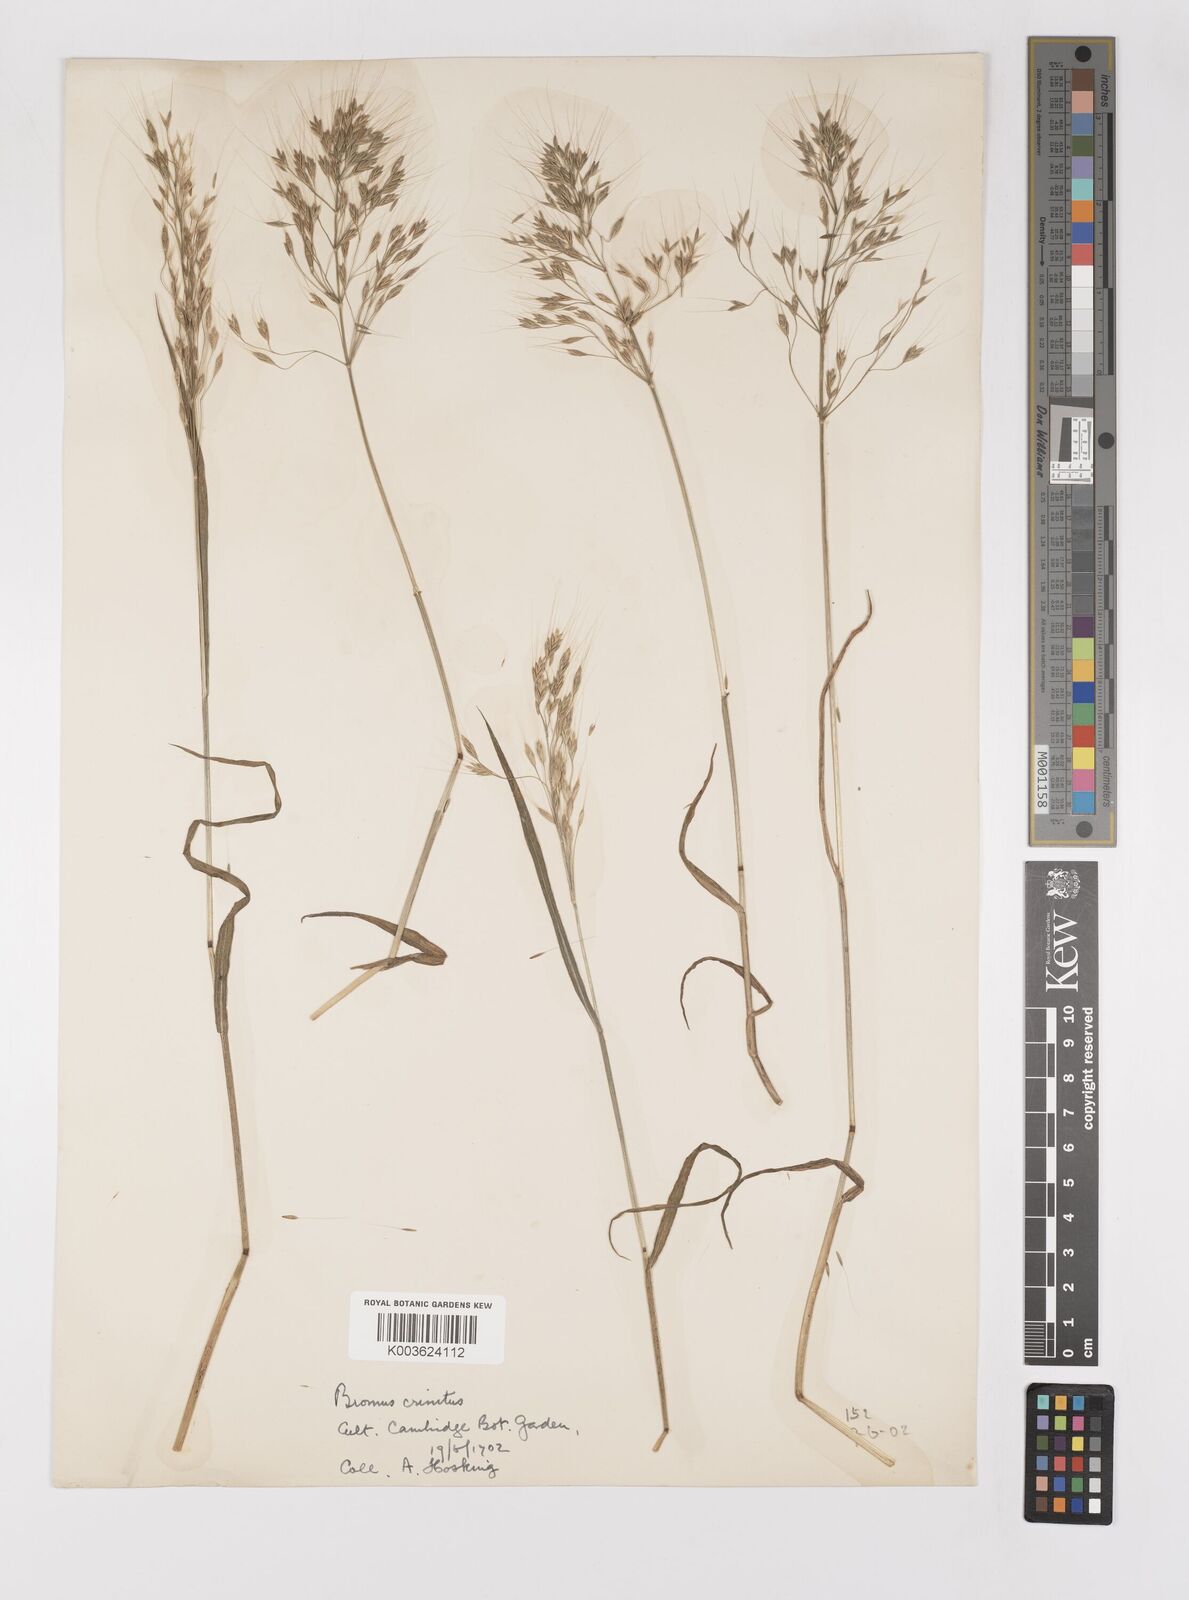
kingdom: Plantae
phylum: Tracheophyta
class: Liliopsida
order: Poales
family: Poaceae
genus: Bromus
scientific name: Bromus gracillimus
